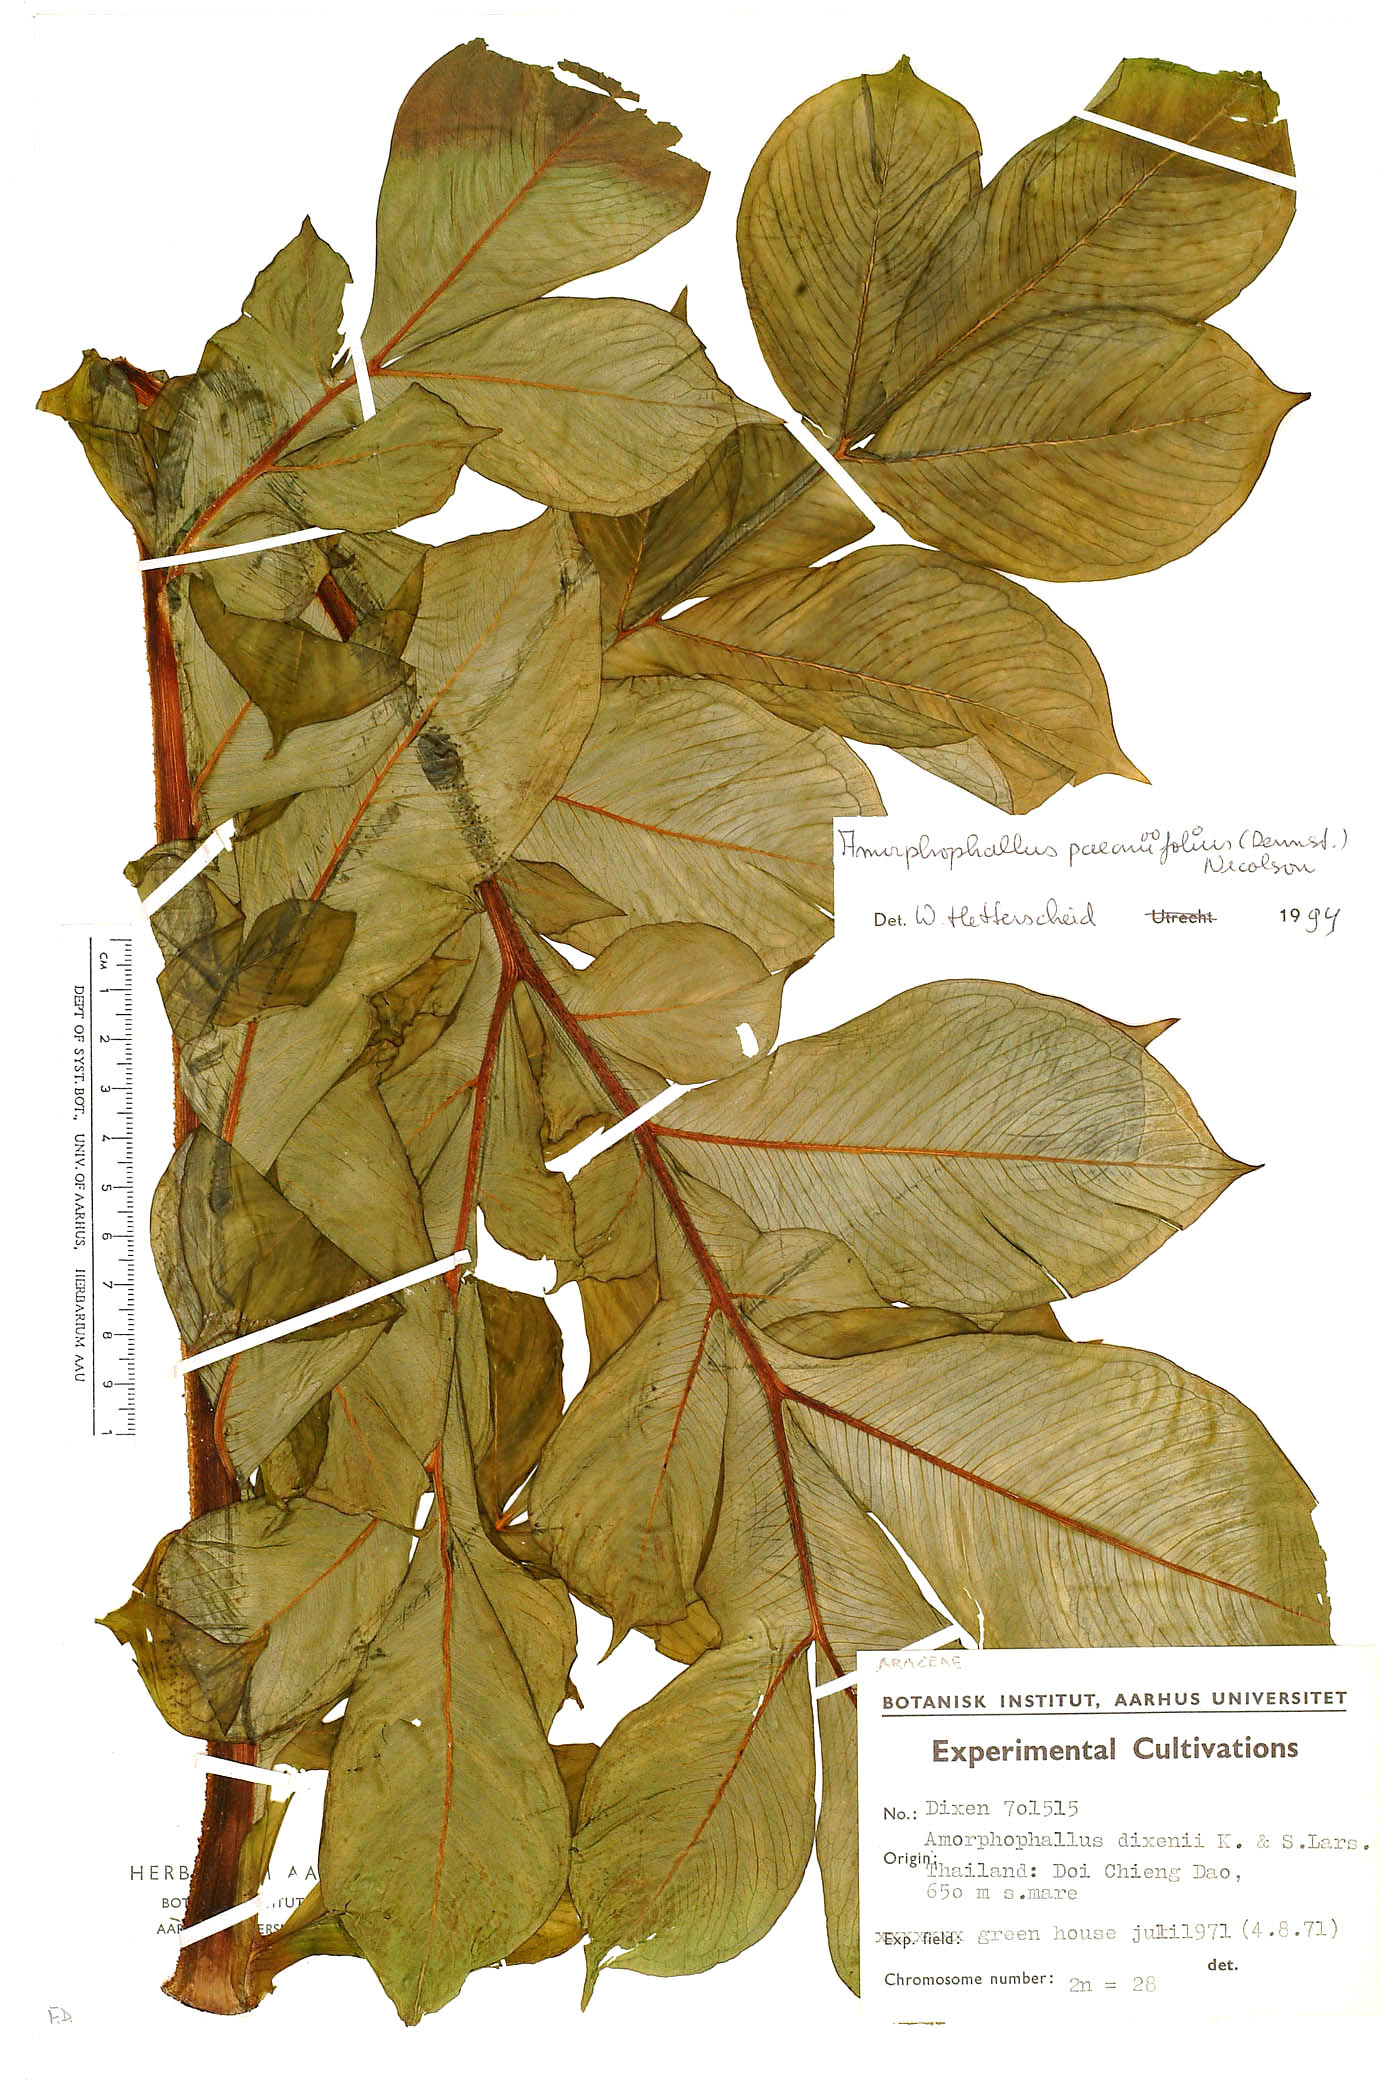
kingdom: Plantae
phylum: Tracheophyta
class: Liliopsida
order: Alismatales
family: Araceae
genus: Amorphophallus
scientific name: Amorphophallus paeoniifolius
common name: Telinga-potato
